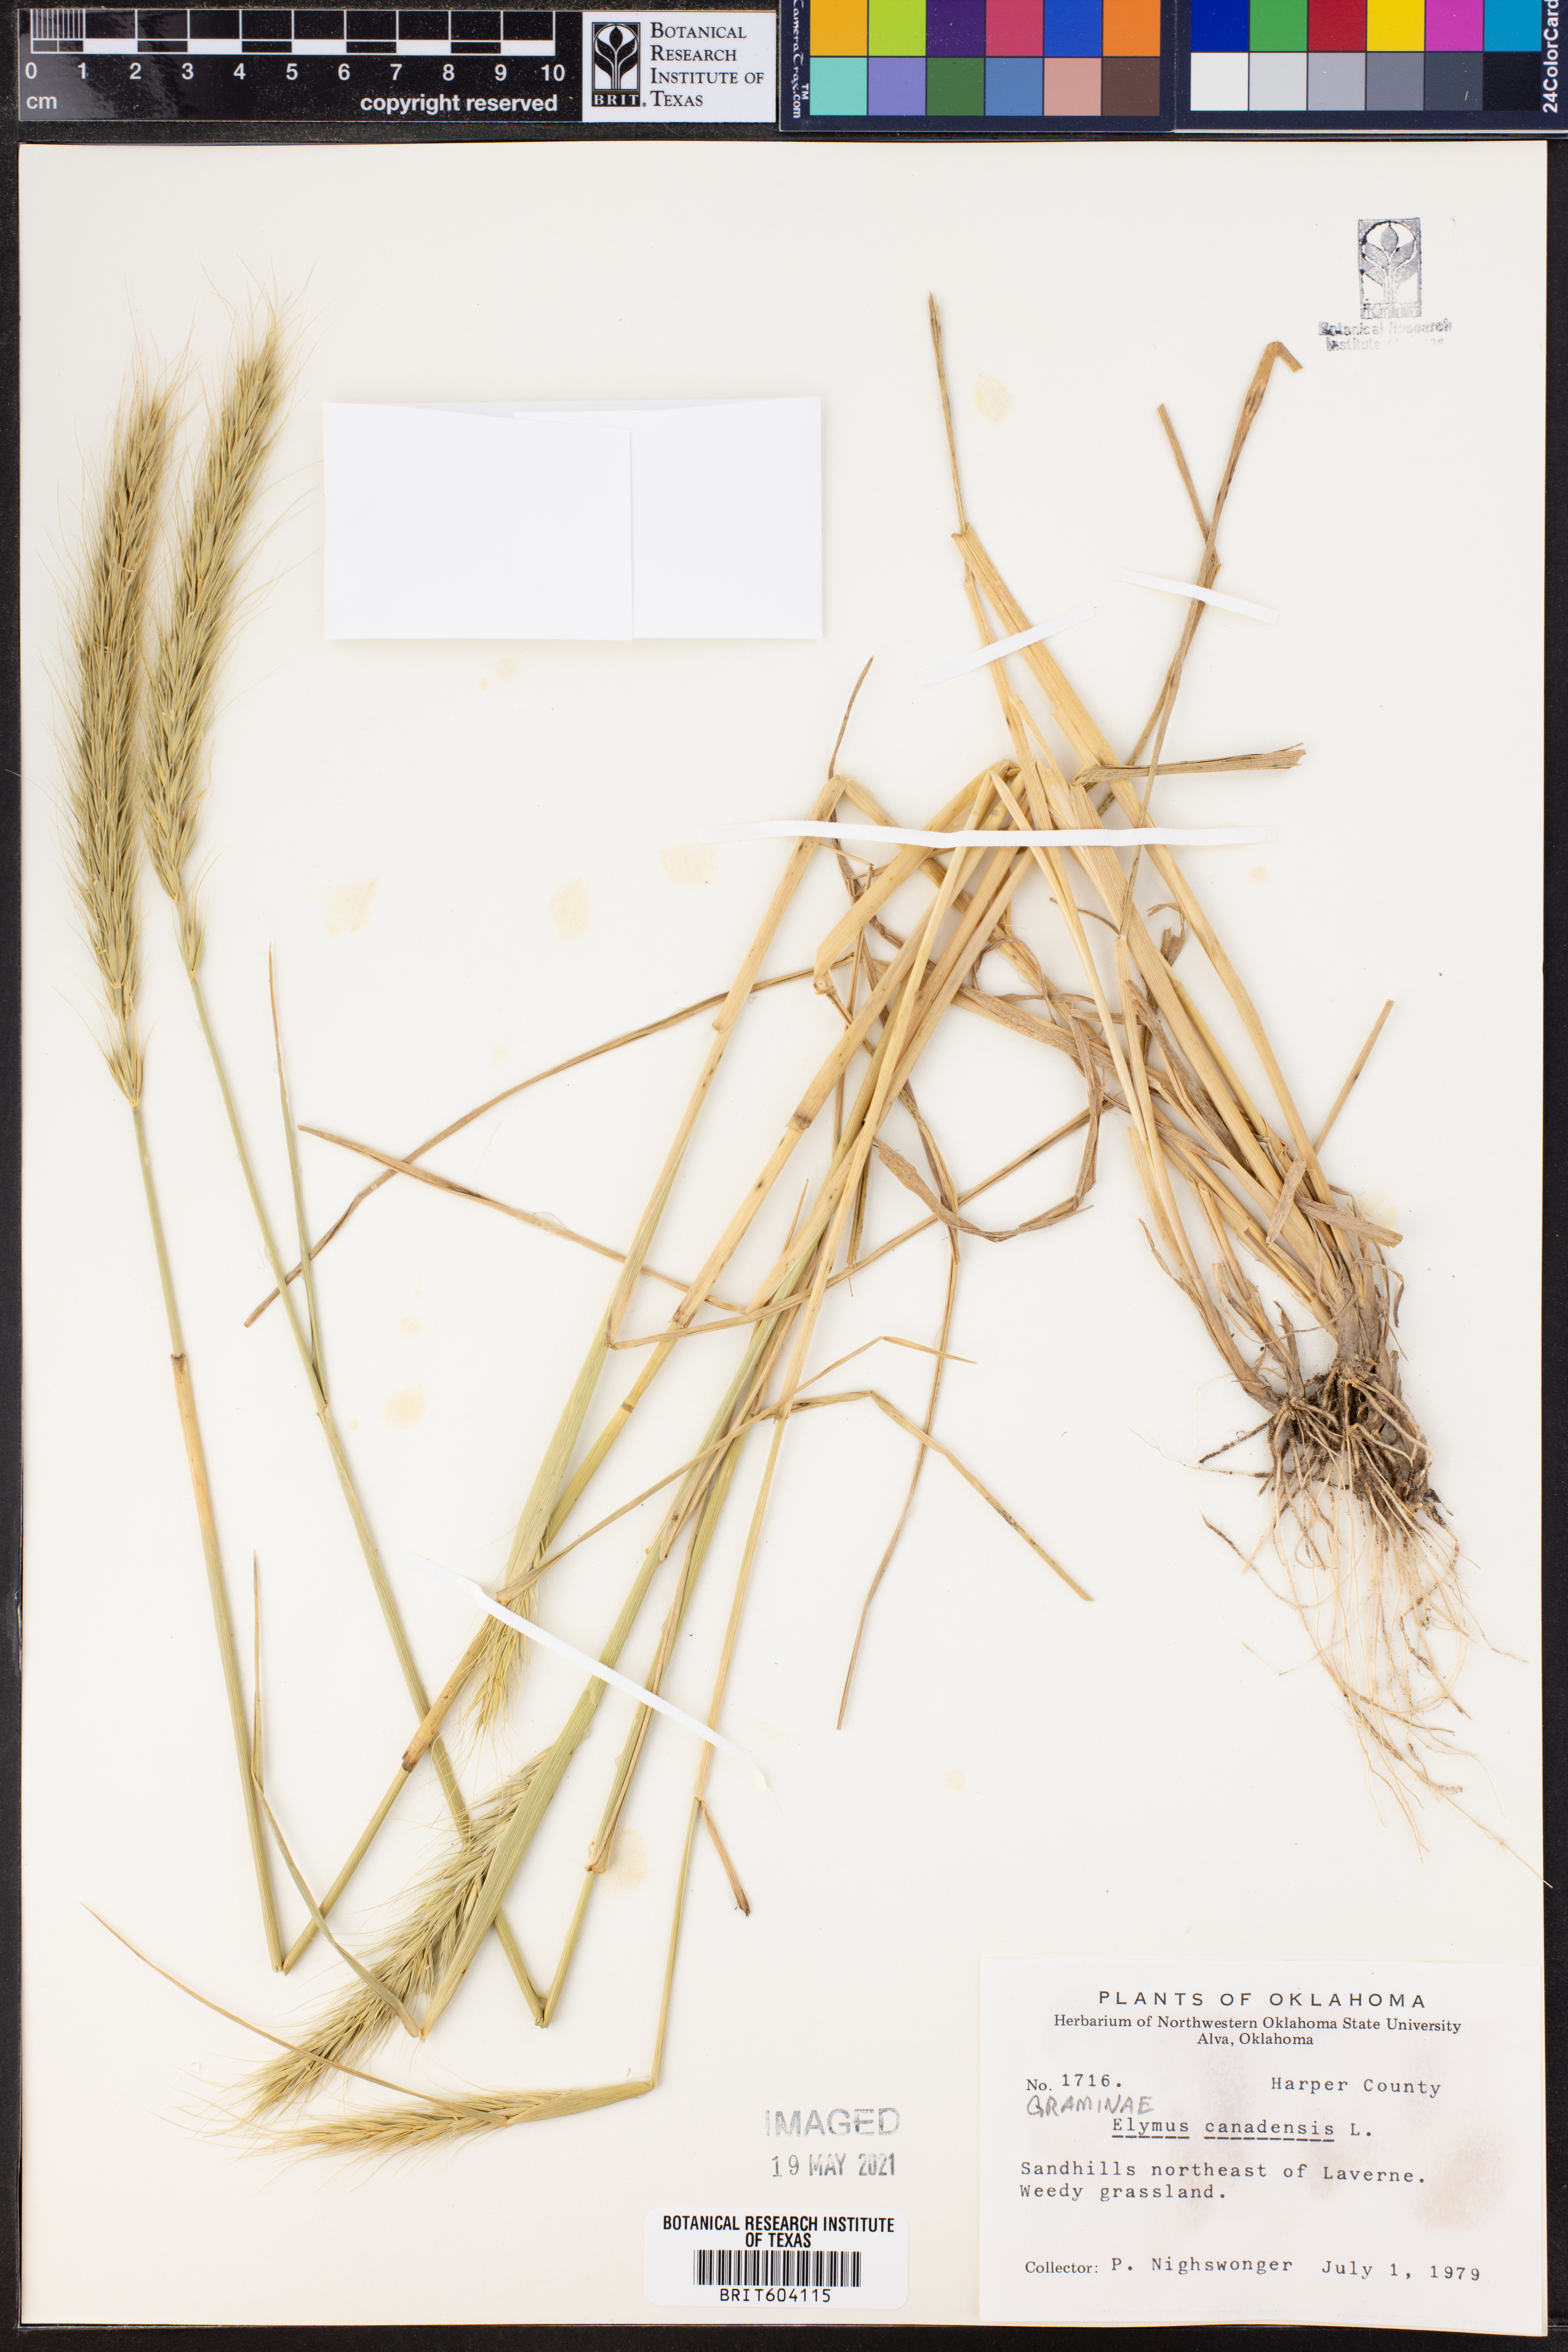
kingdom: Plantae
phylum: Tracheophyta
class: Liliopsida
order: Poales
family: Poaceae
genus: Elymus
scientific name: Elymus canadensis
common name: Canada wild rye
